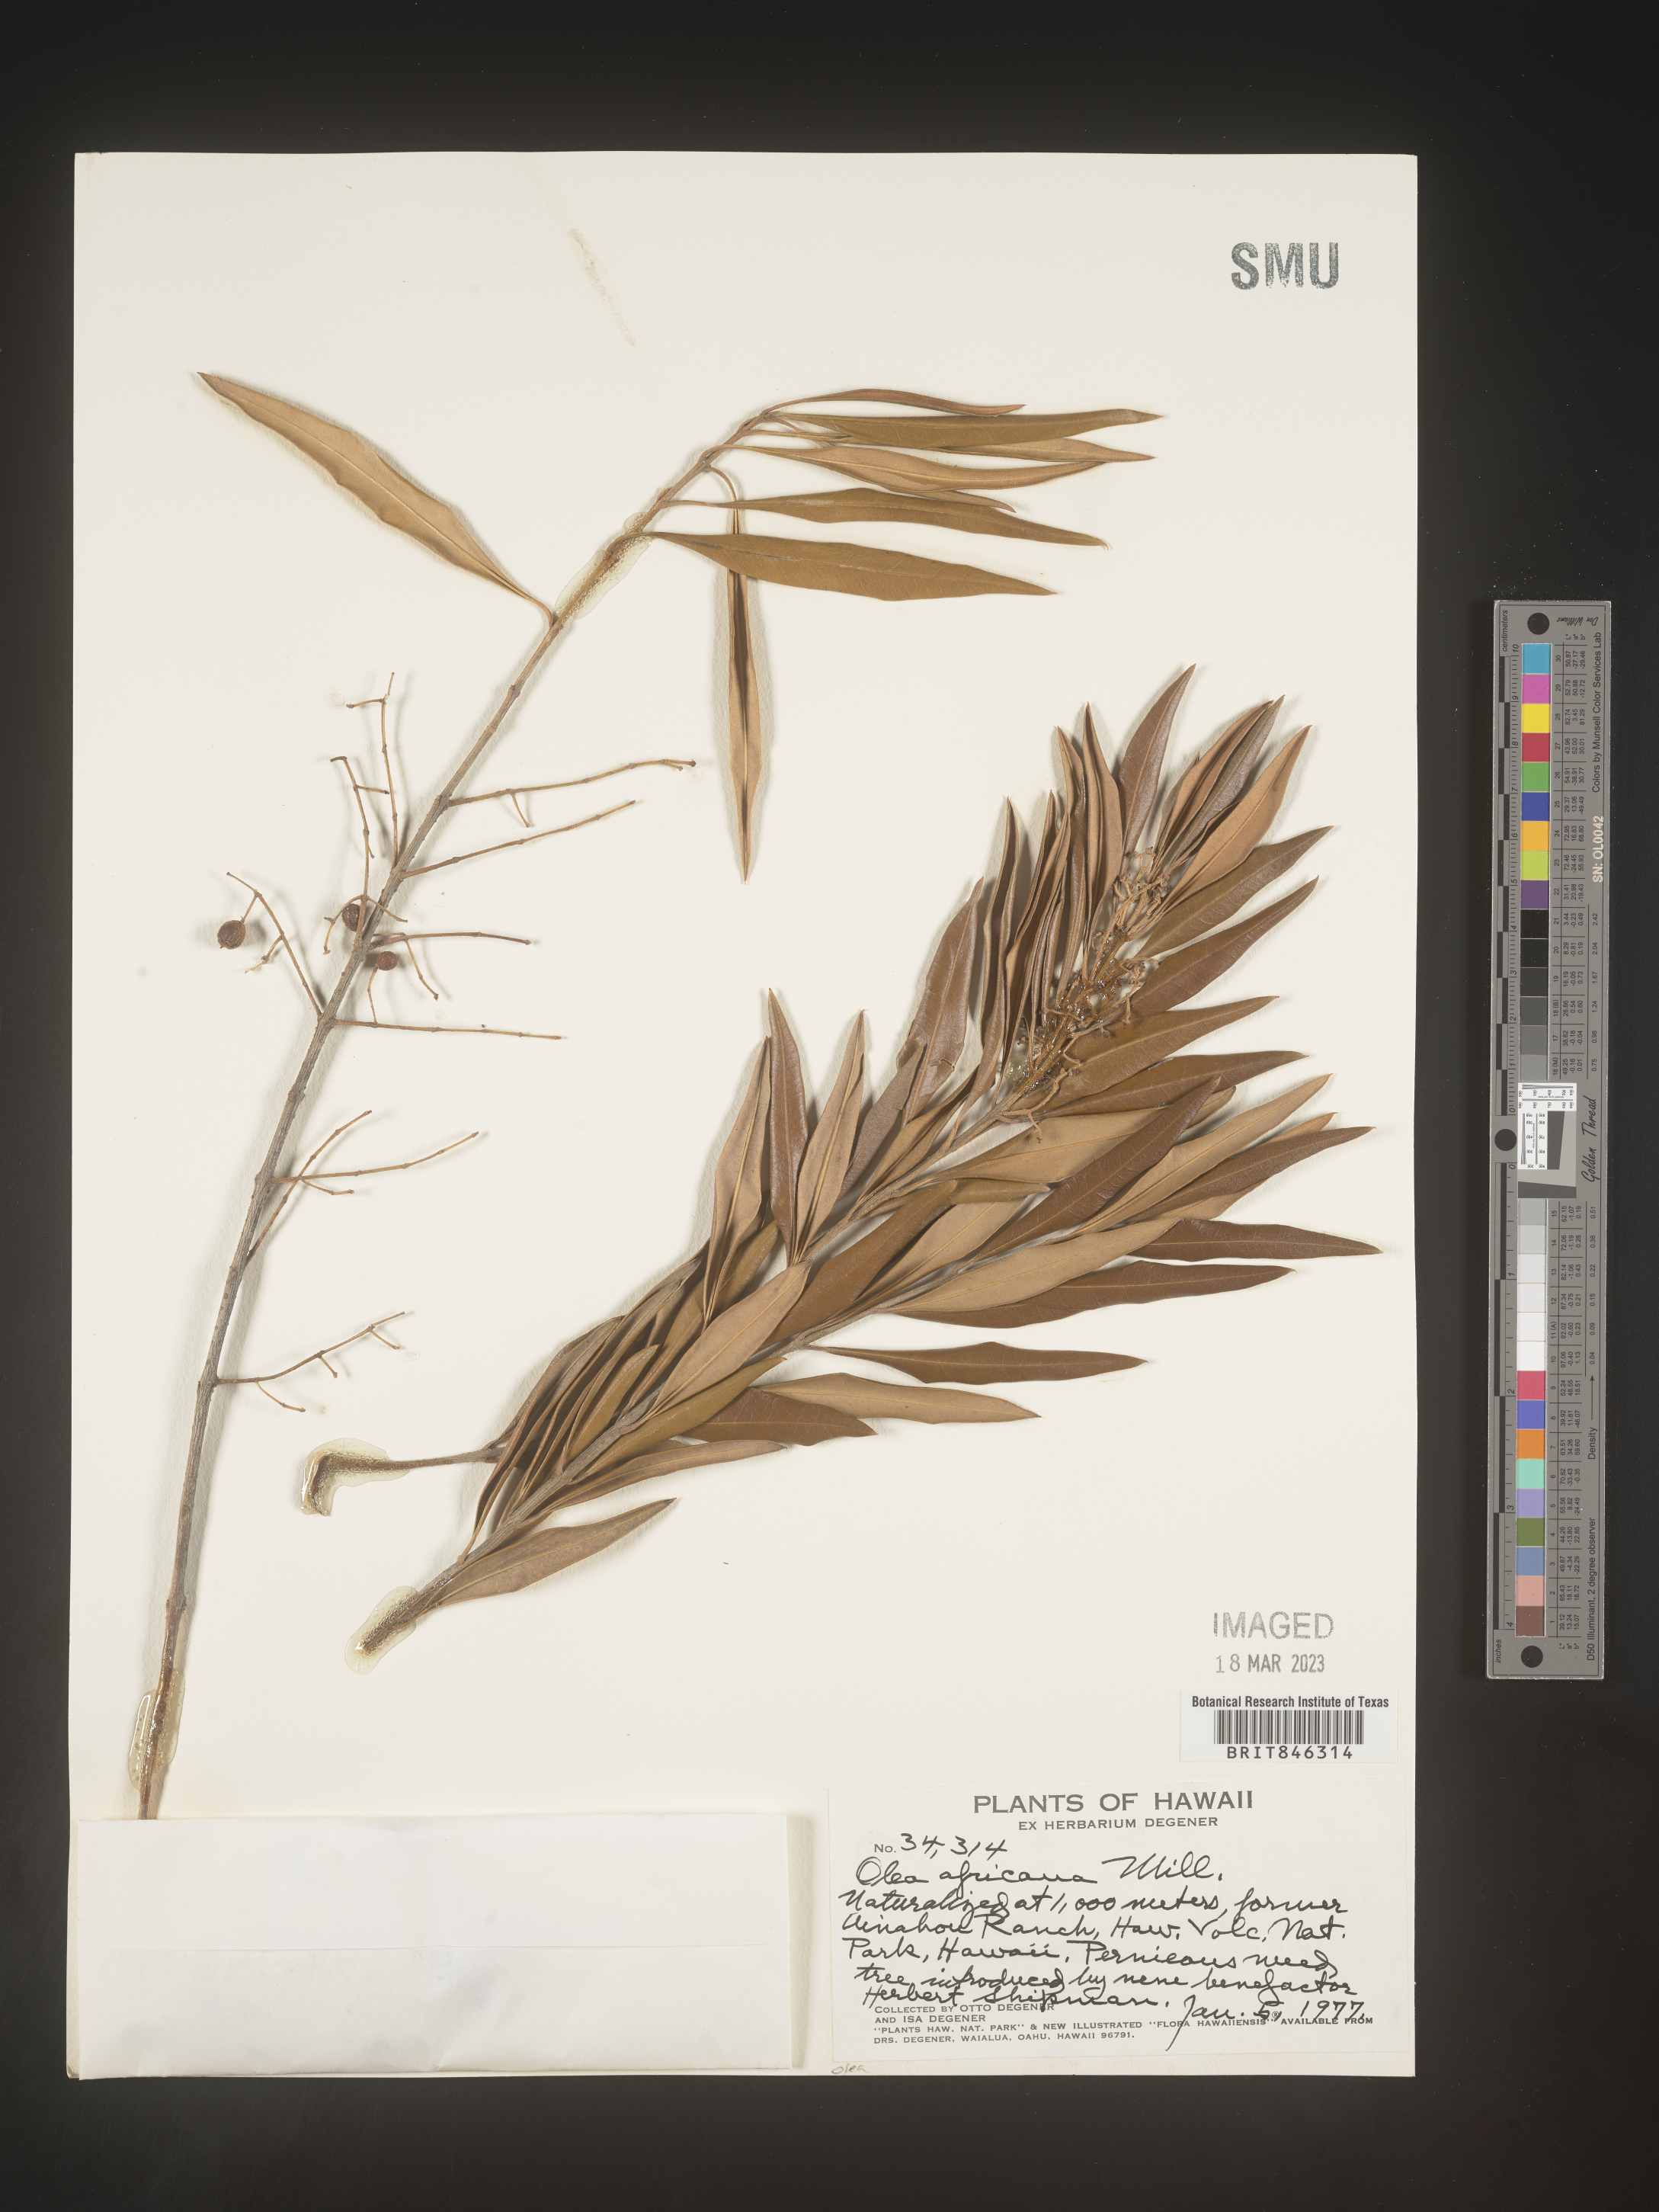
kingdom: Plantae
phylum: Tracheophyta
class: Magnoliopsida
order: Lamiales
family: Oleaceae
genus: Olea
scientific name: Olea
